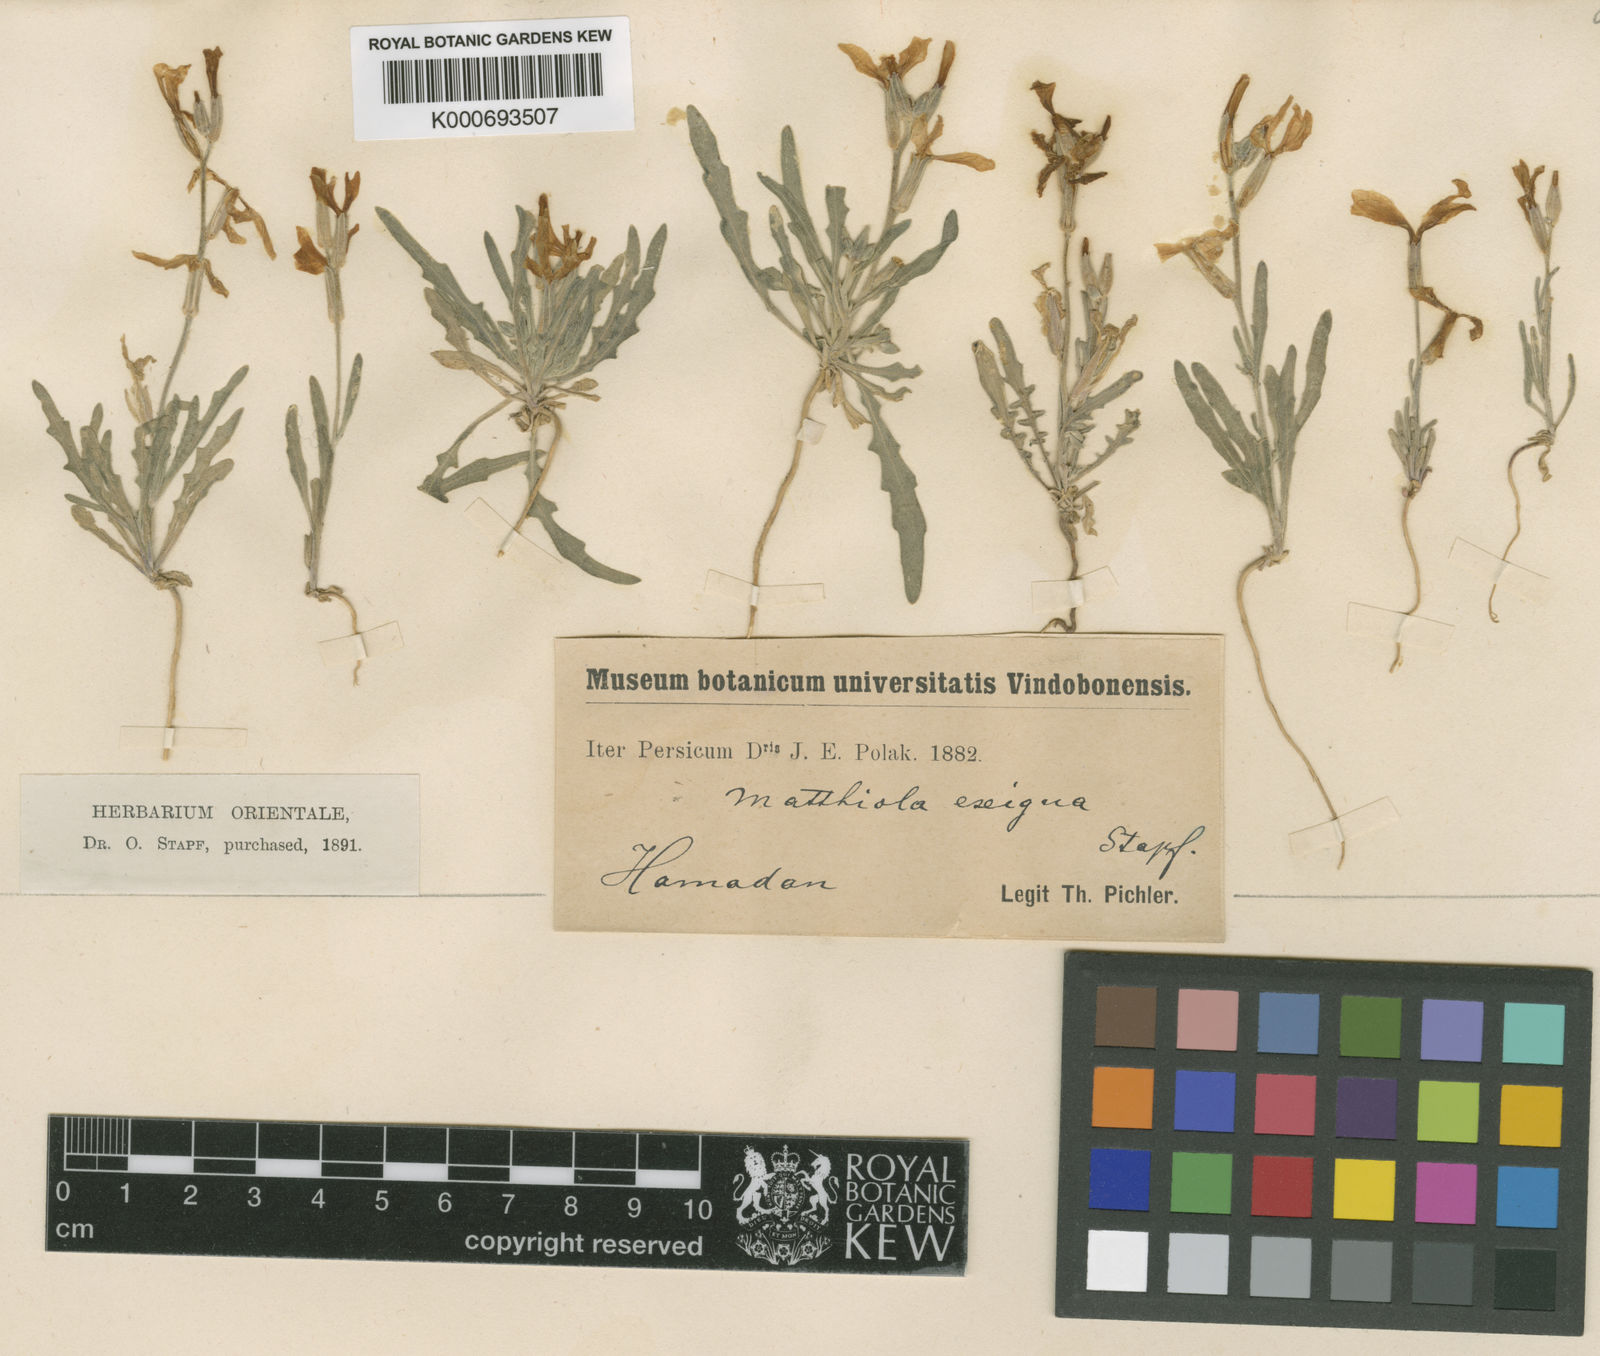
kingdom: Plantae
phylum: Tracheophyta
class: Magnoliopsida
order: Brassicales
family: Brassicaceae
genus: Matthiola
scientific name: Matthiola chenopodiifolia
